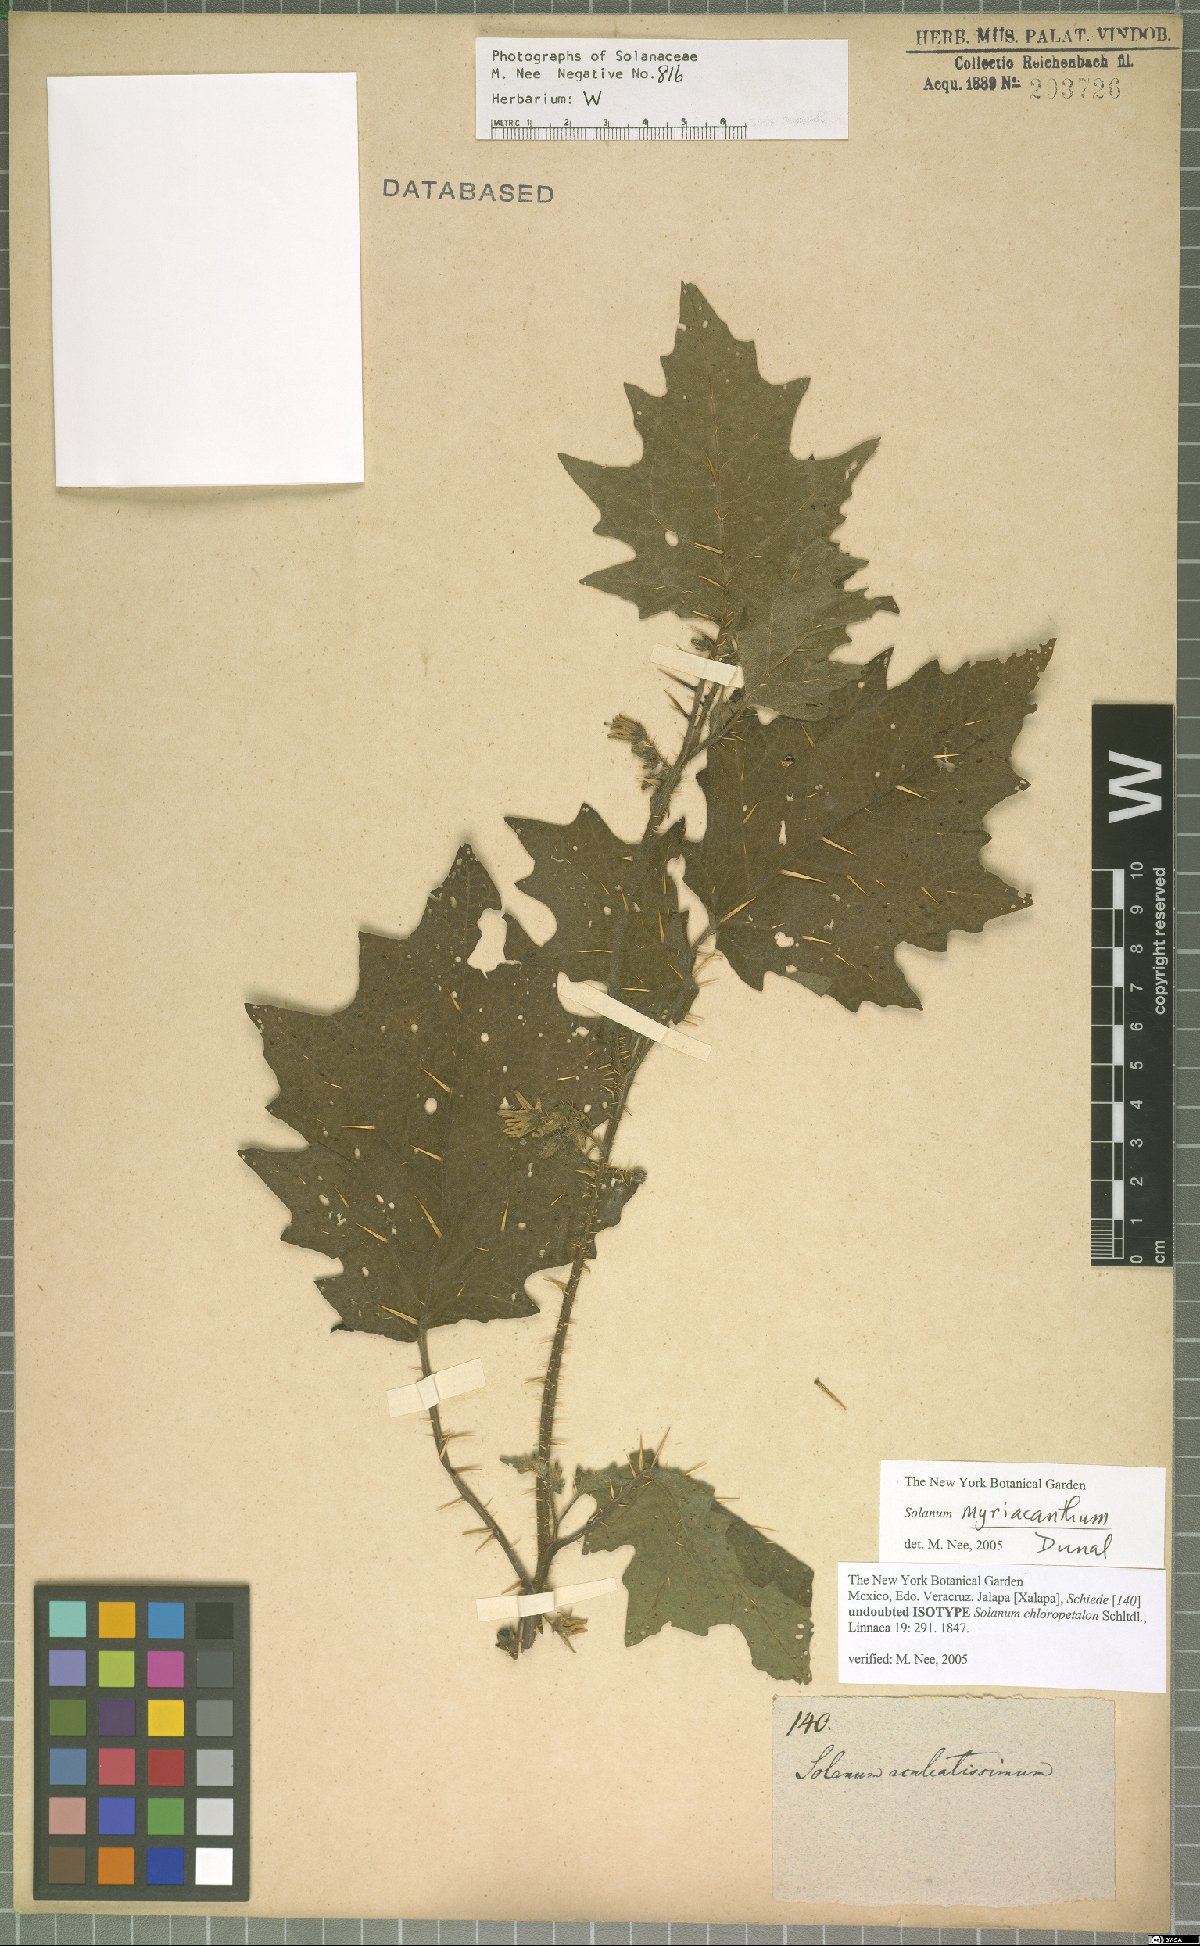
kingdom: Plantae
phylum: Tracheophyta
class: Magnoliopsida
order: Solanales
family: Solanaceae
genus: Solanum
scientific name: Solanum myriacanthum
